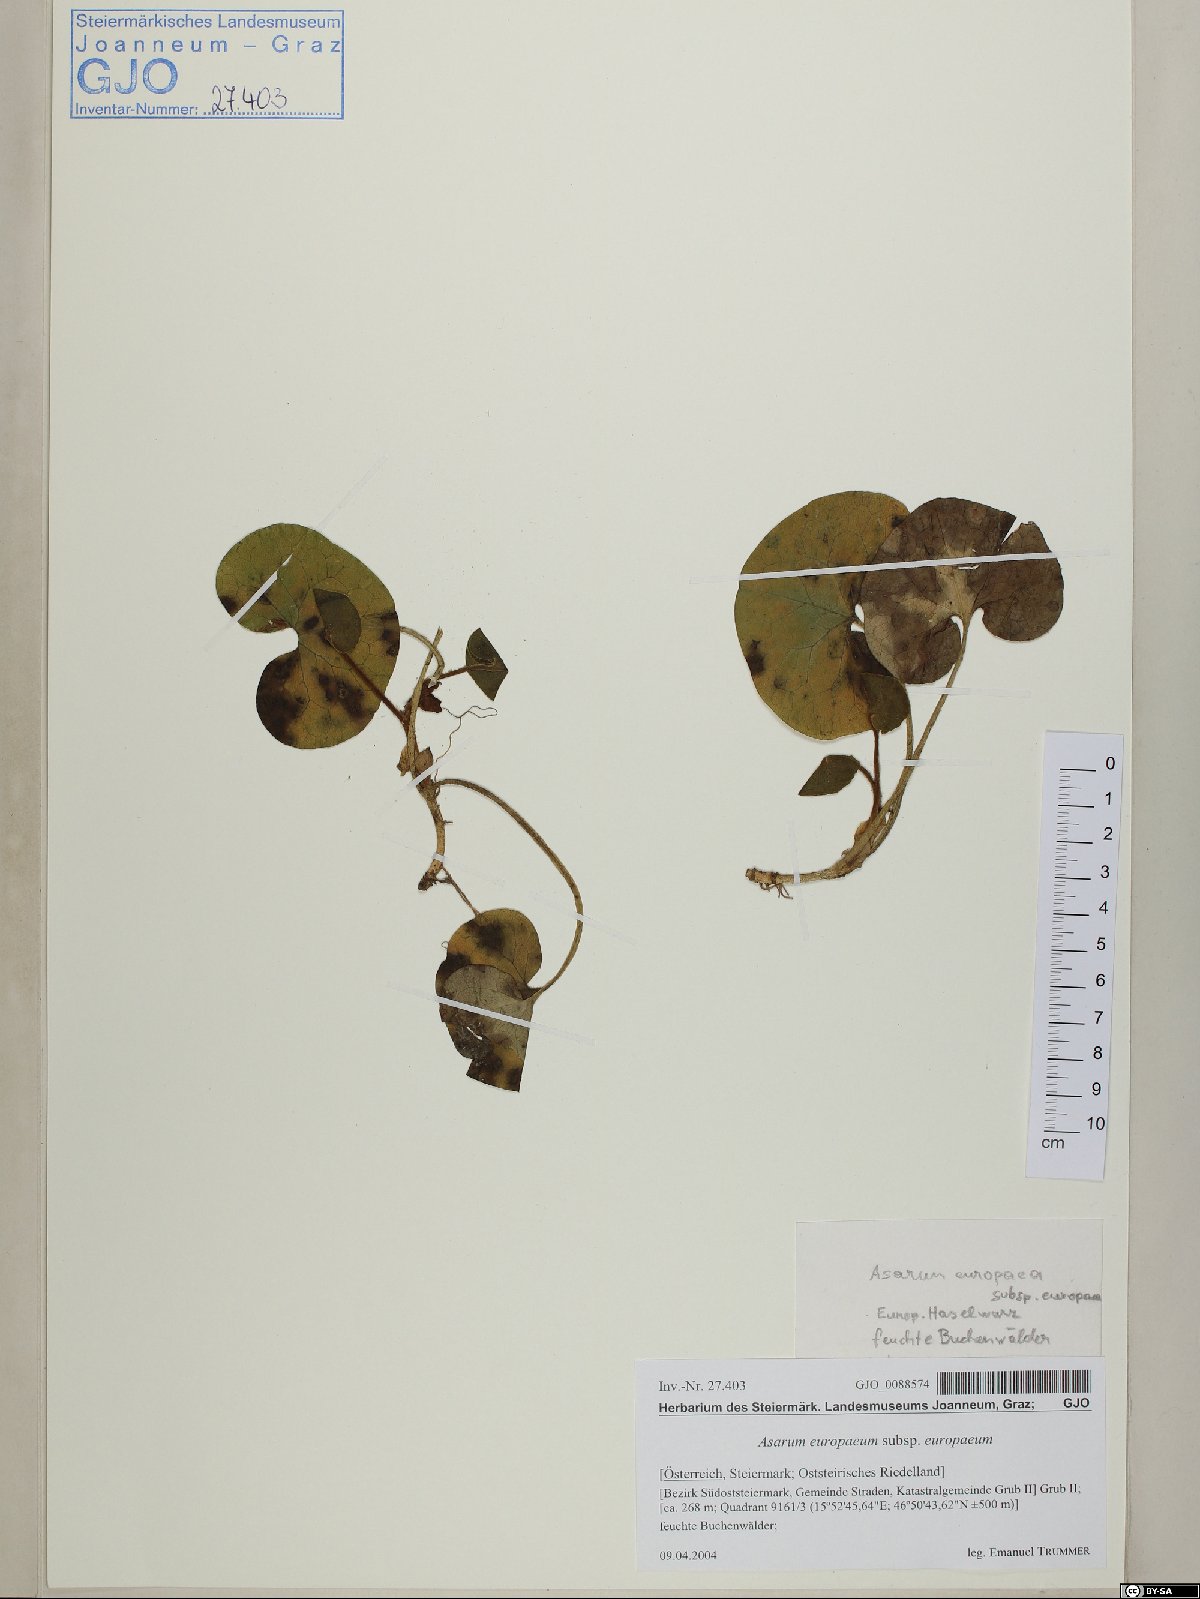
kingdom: Plantae
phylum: Tracheophyta
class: Magnoliopsida
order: Piperales
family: Aristolochiaceae
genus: Asarum
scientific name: Asarum europaeum
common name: Asarabacca
